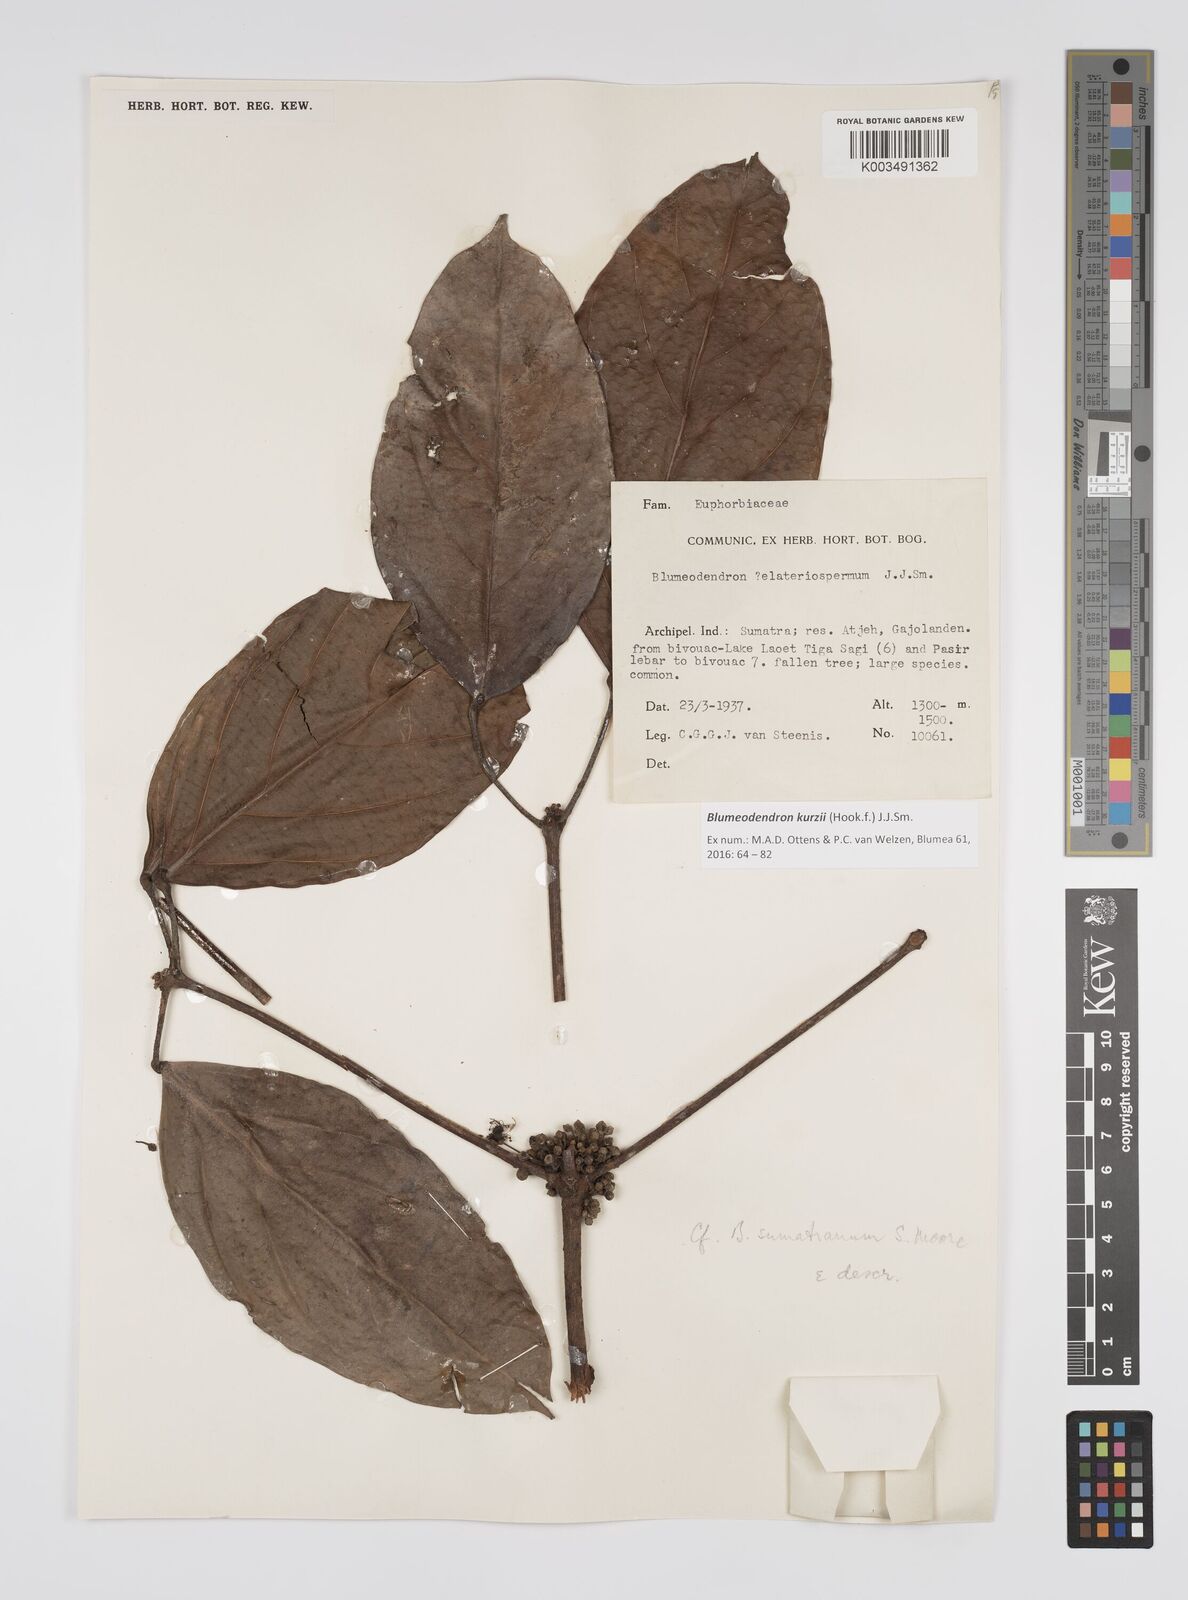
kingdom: Plantae
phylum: Tracheophyta
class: Magnoliopsida
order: Malpighiales
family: Euphorbiaceae
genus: Blumeodendron
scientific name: Blumeodendron kurzii
